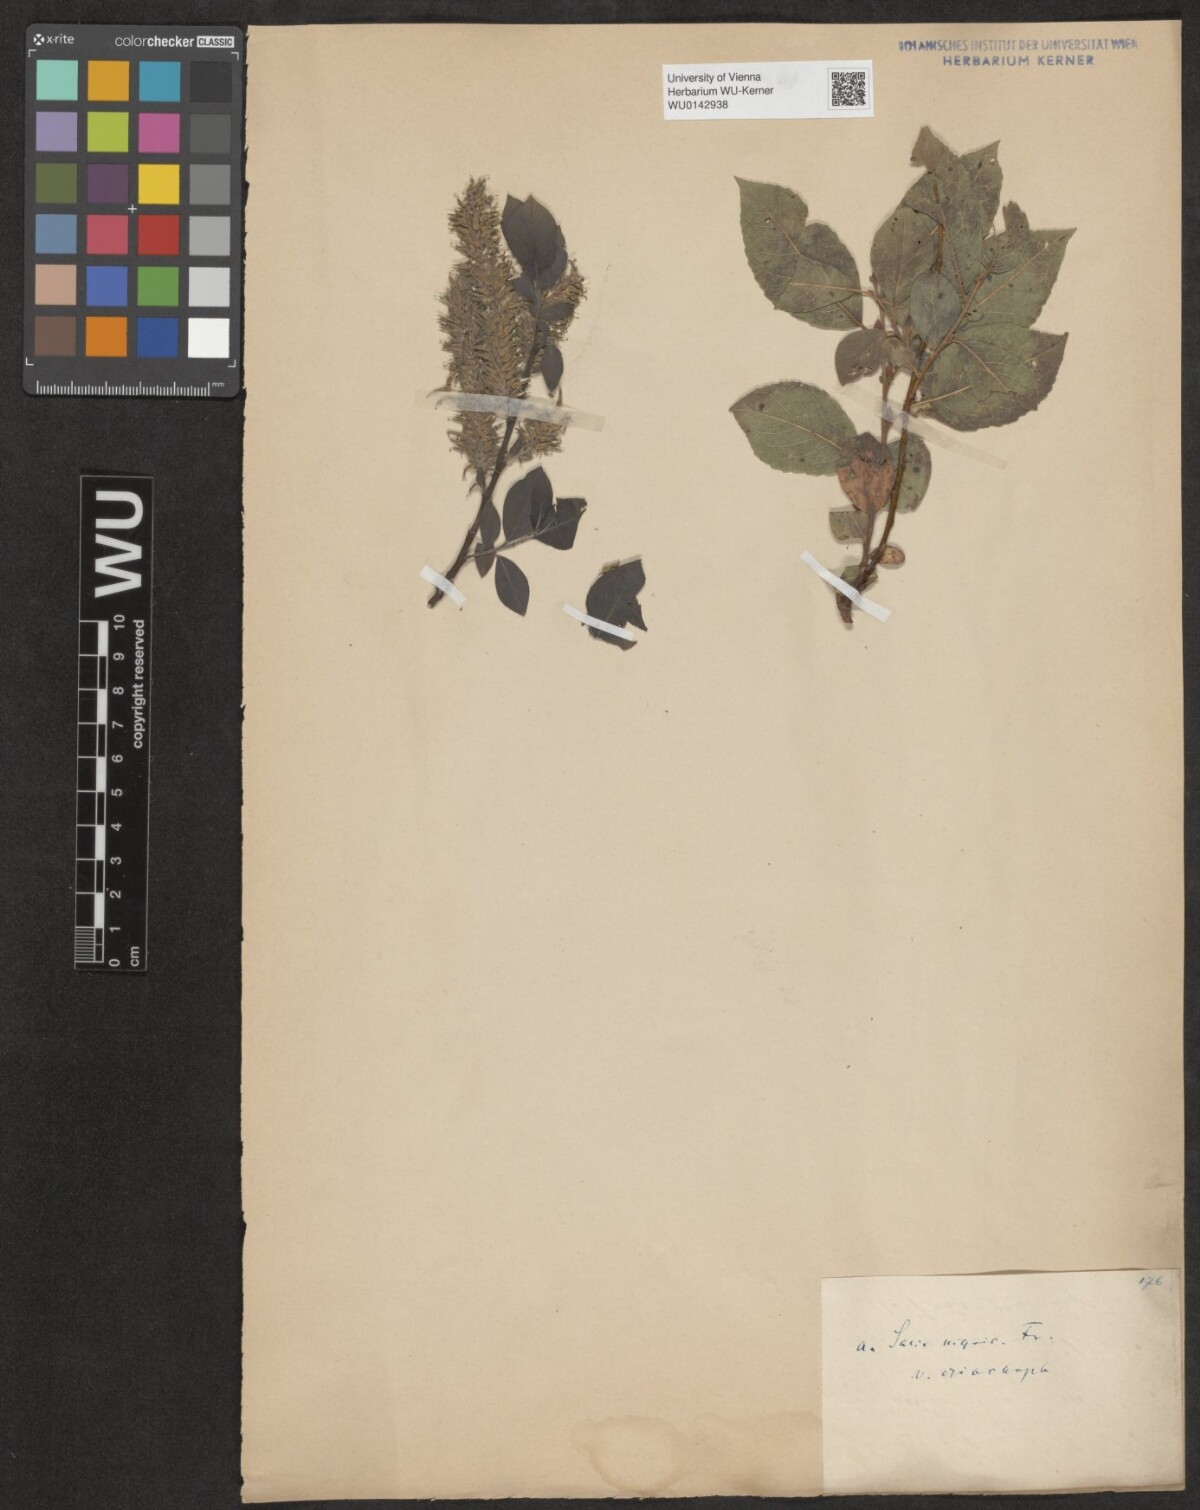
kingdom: Plantae
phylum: Tracheophyta
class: Magnoliopsida
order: Malpighiales
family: Salicaceae
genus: Salix
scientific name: Salix myrsinifolia
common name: Dark-leaved willow
